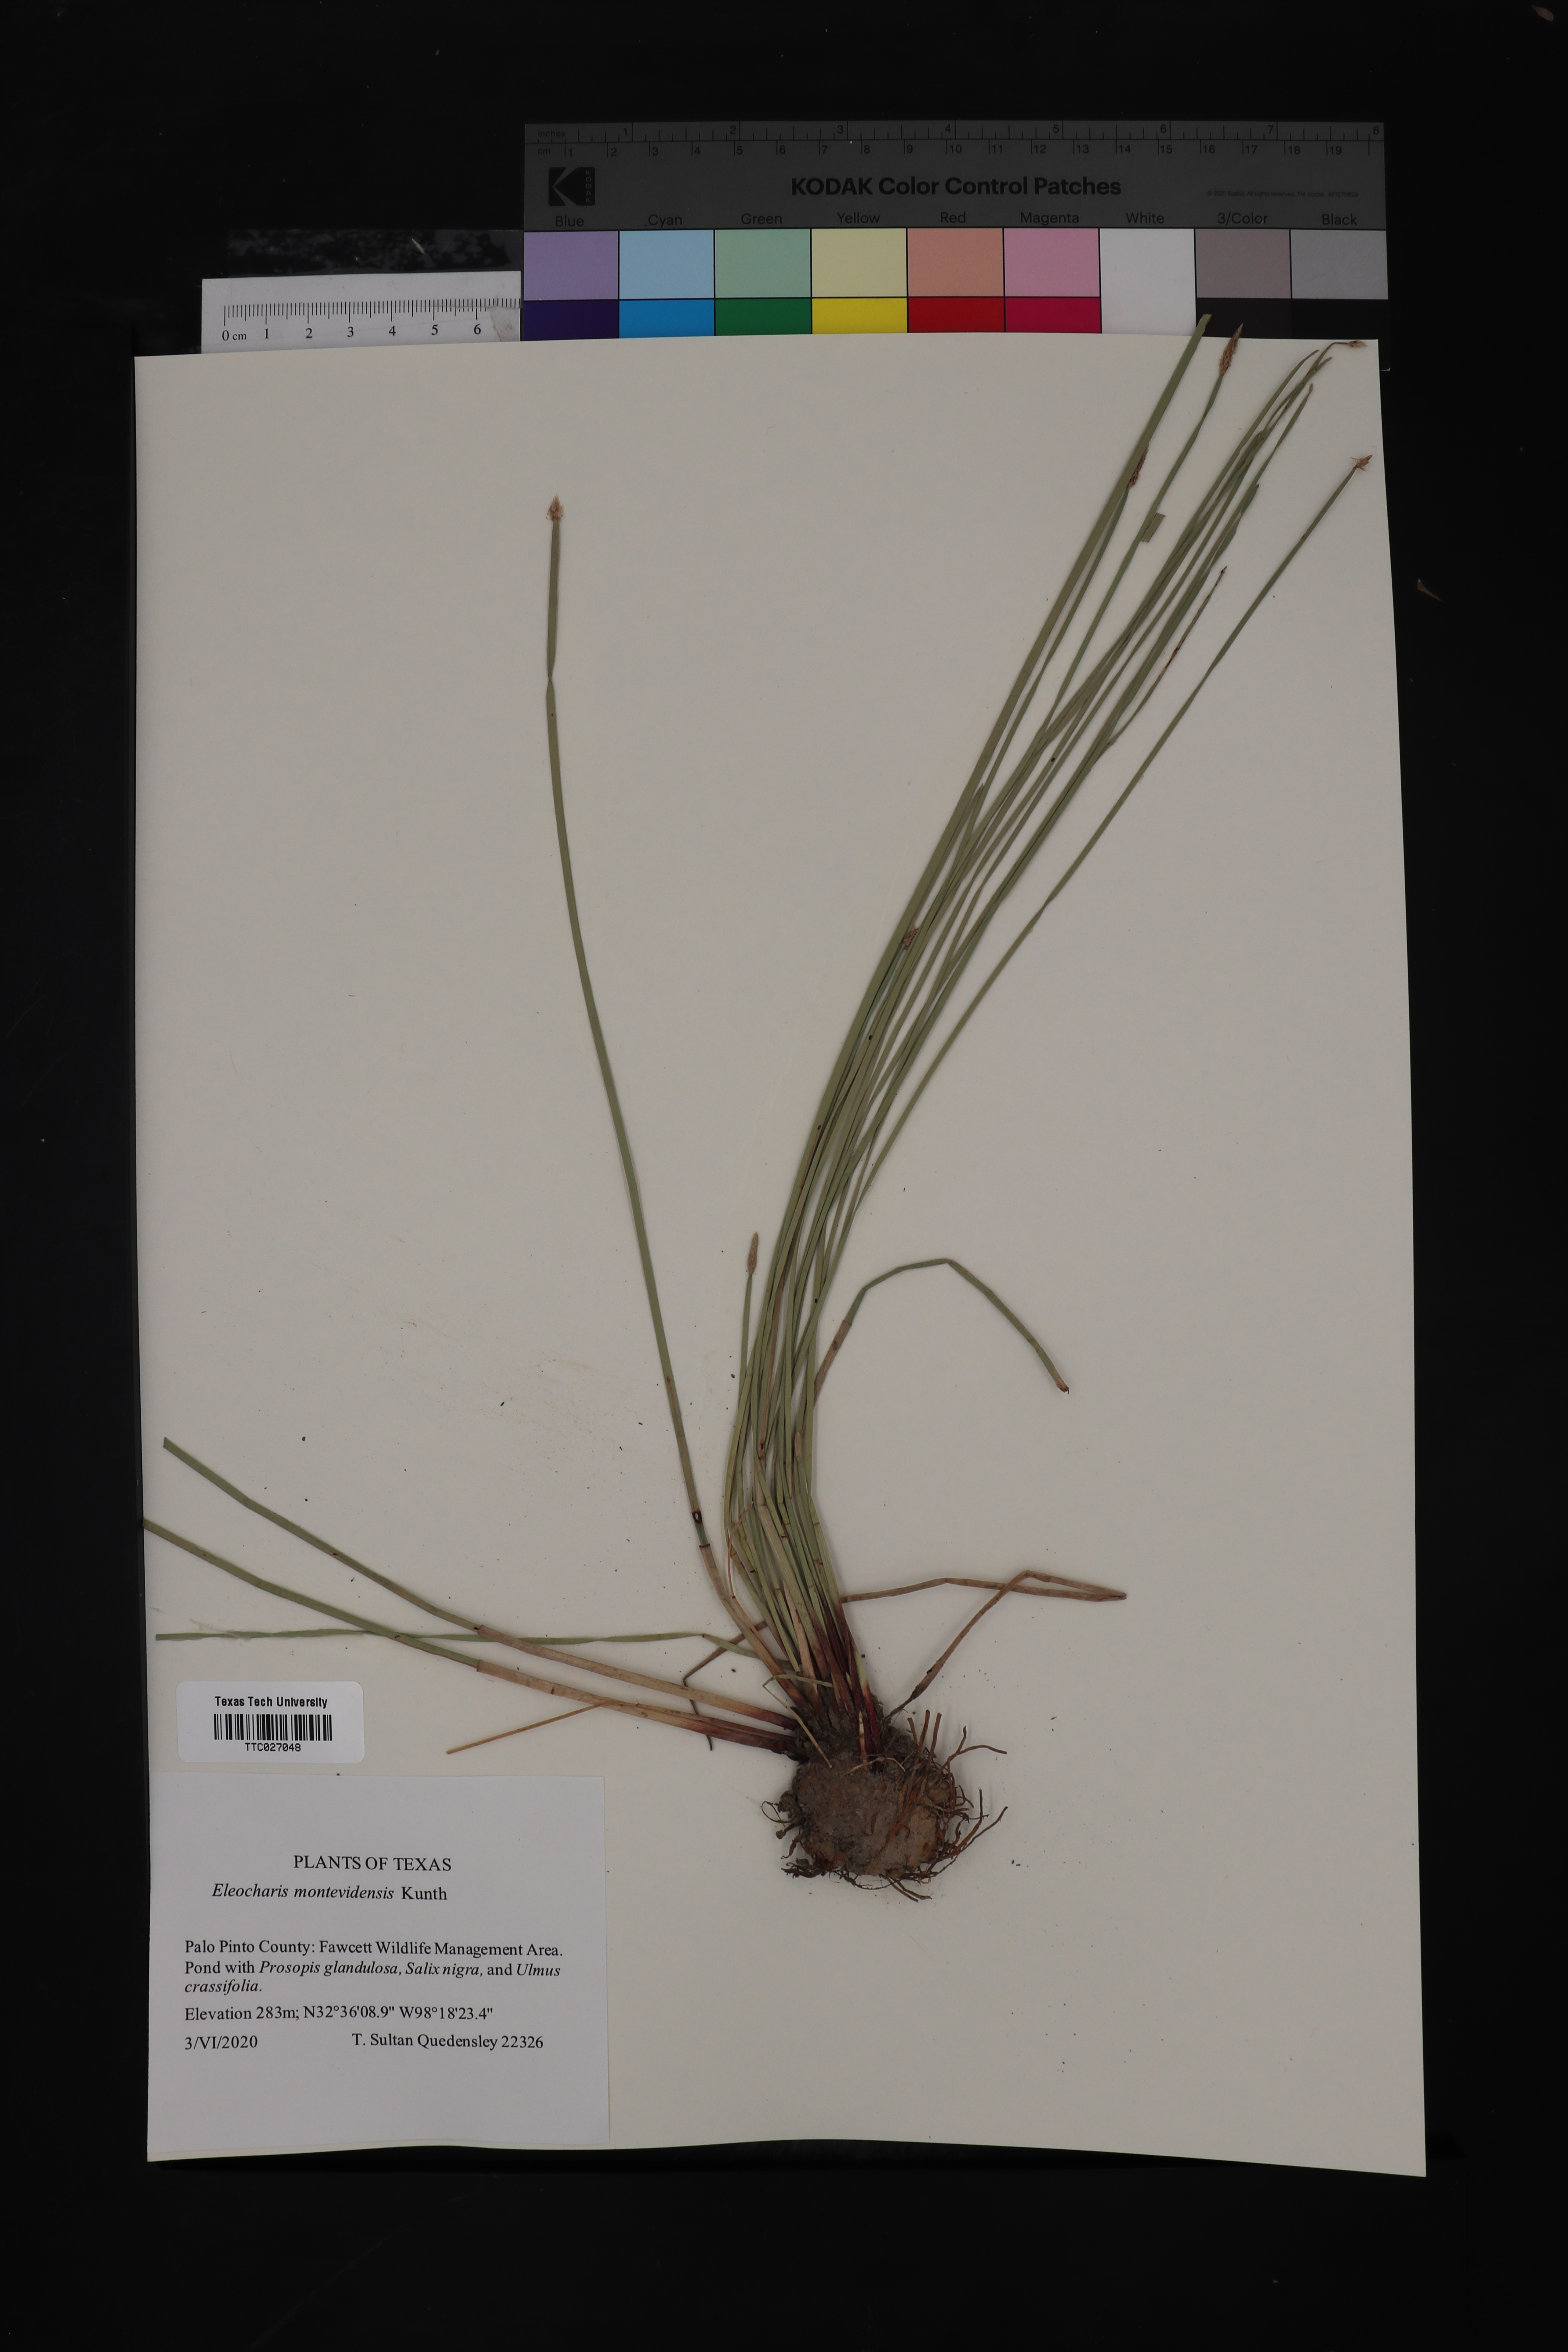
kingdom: Plantae
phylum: Tracheophyta
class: Liliopsida
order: Poales
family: Cyperaceae
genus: Eleocharis
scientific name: Eleocharis montevidensis
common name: Sand spike-rush
